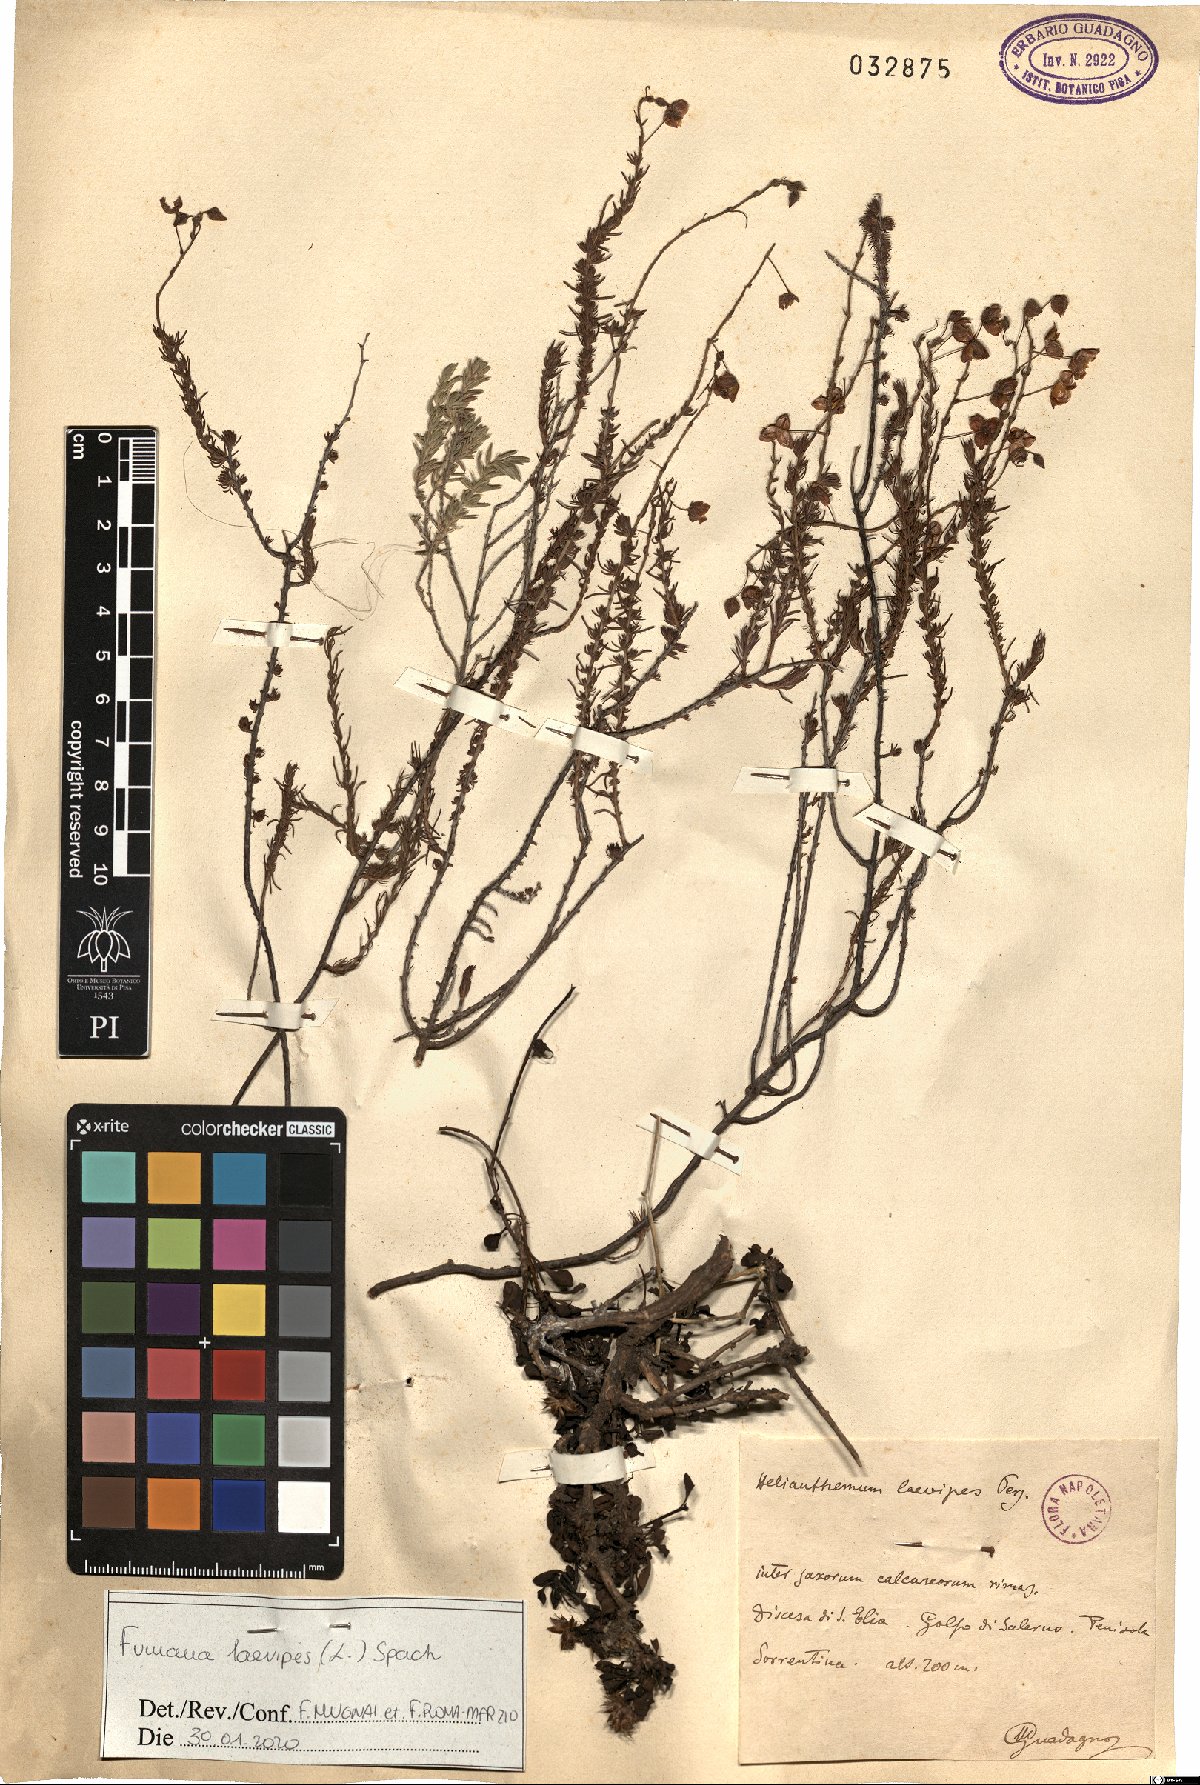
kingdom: Plantae
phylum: Tracheophyta
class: Magnoliopsida
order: Malvales
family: Cistaceae
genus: Fumana
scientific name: Fumana laevipes
